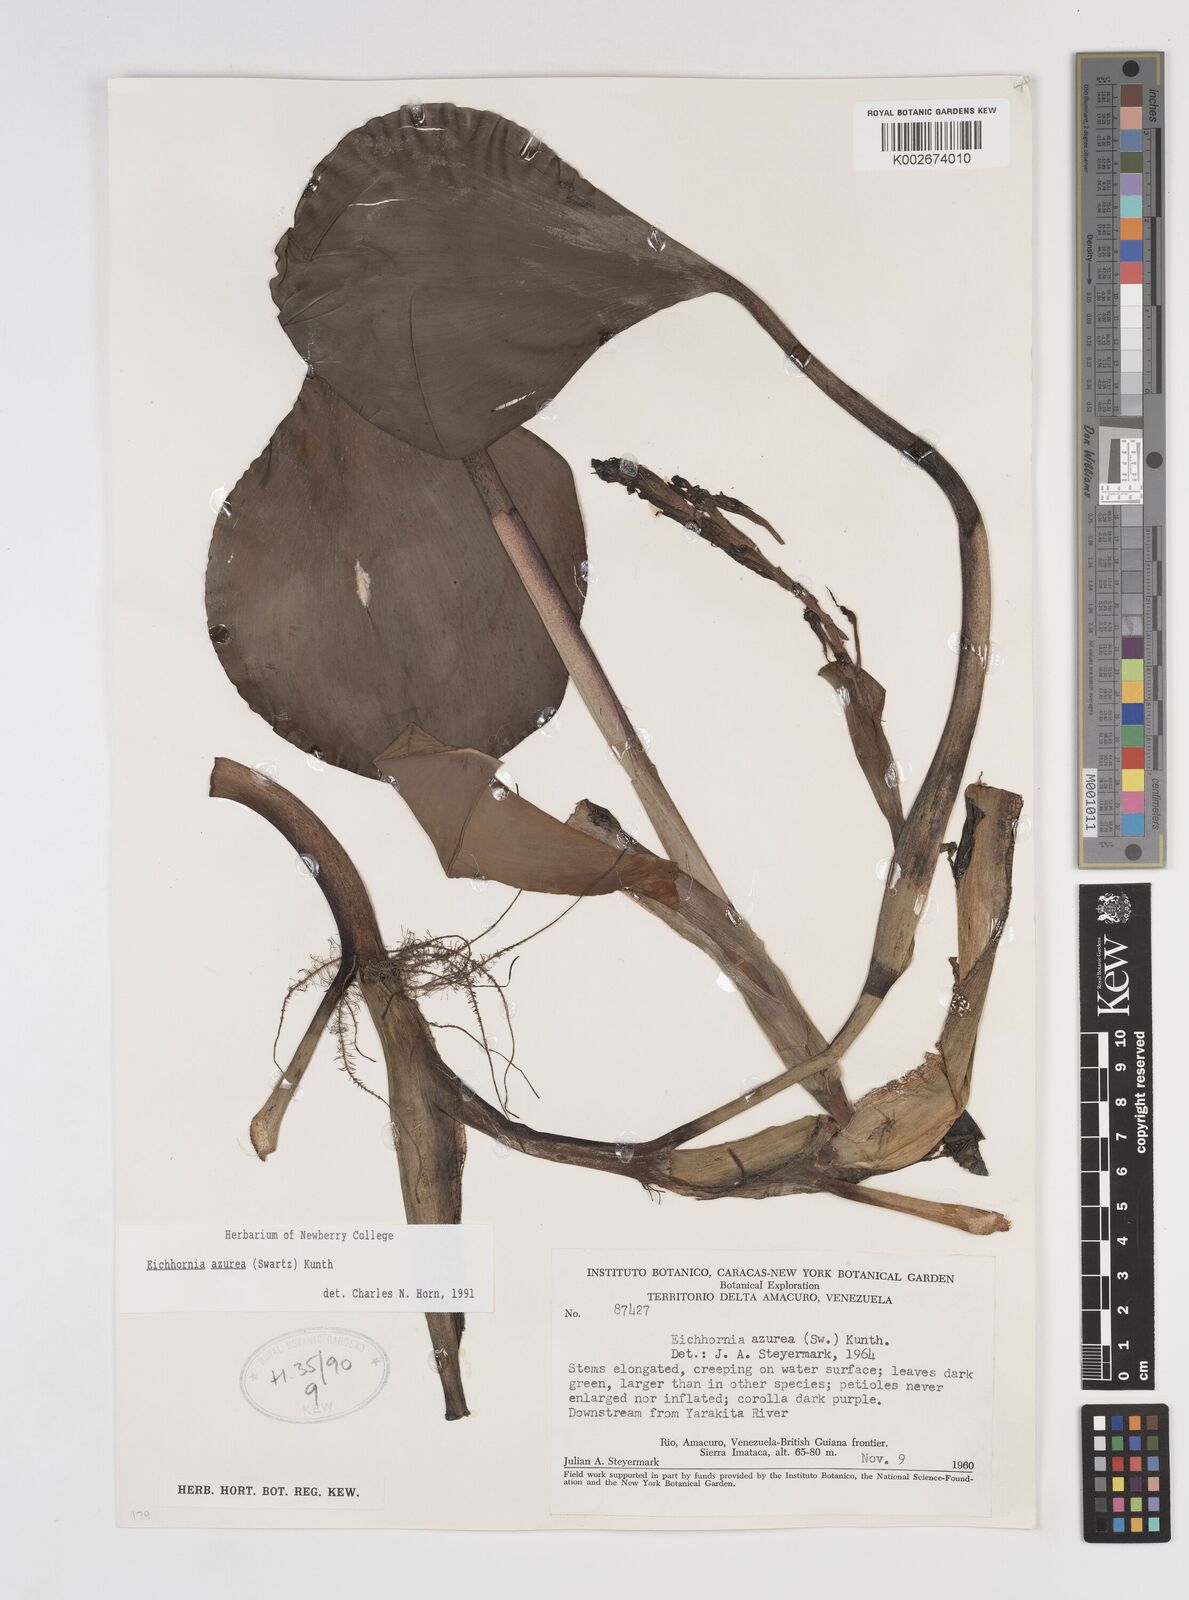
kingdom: Plantae
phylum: Tracheophyta
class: Liliopsida
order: Commelinales
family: Pontederiaceae
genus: Pontederia
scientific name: Pontederia azurea
